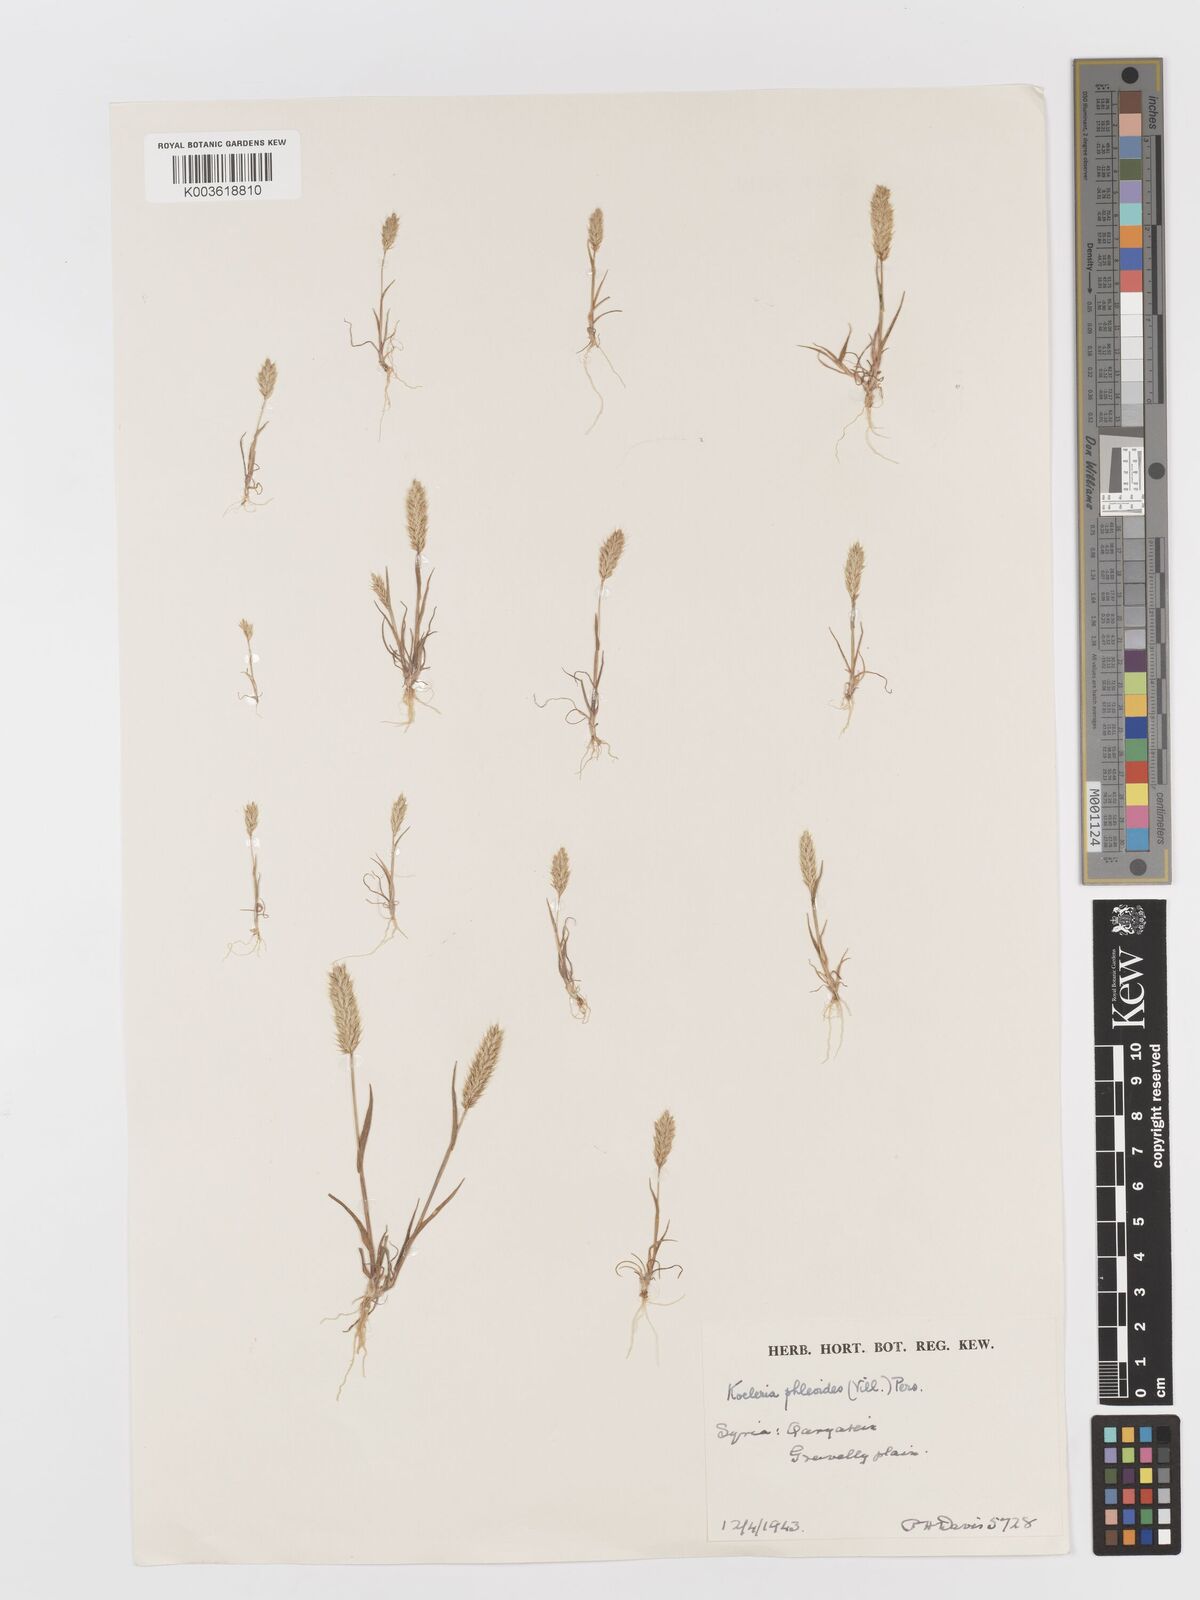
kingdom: Plantae
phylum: Tracheophyta
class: Liliopsida
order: Poales
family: Poaceae
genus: Rostraria
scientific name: Rostraria cristata
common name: Mediterranean hair-grass
